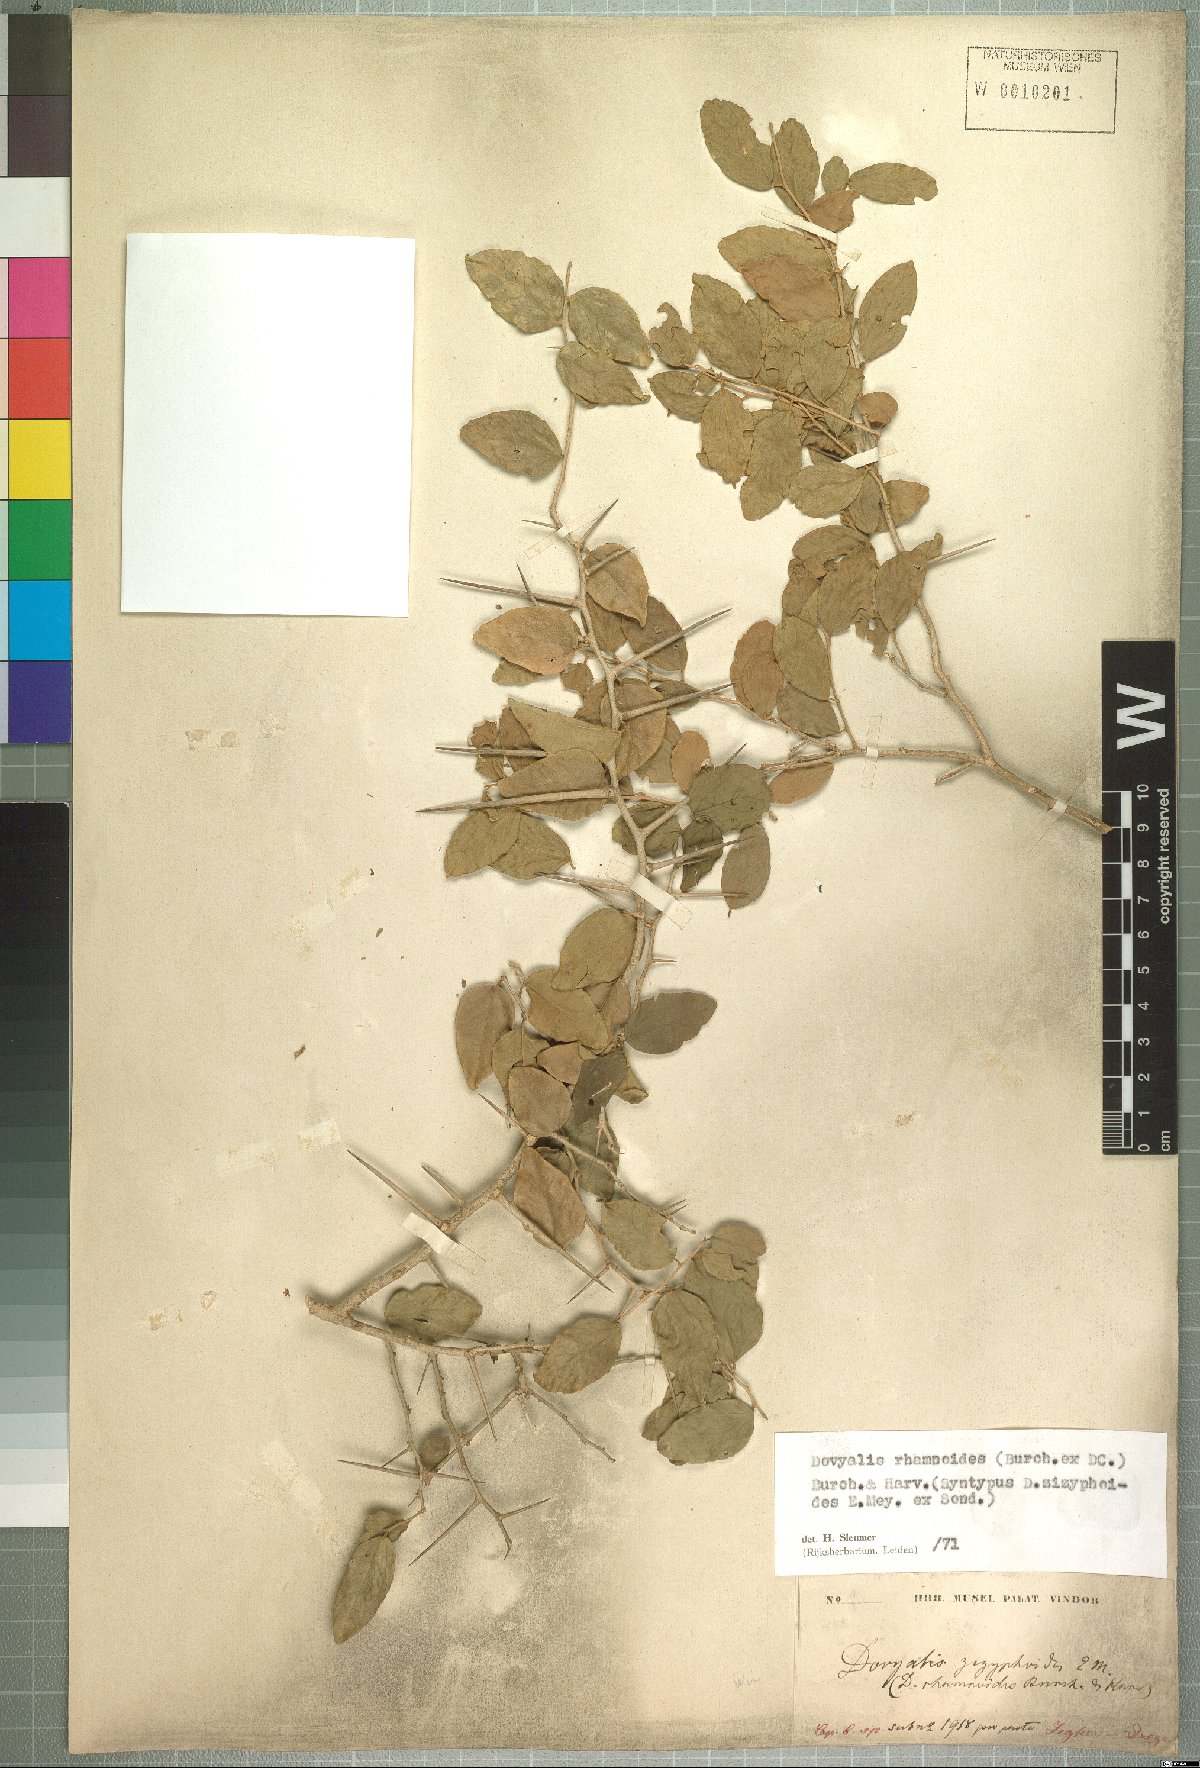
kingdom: Plantae
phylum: Tracheophyta
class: Magnoliopsida
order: Malpighiales
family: Salicaceae
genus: Dovyalis
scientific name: Dovyalis rhamnoides
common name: Sourberry
